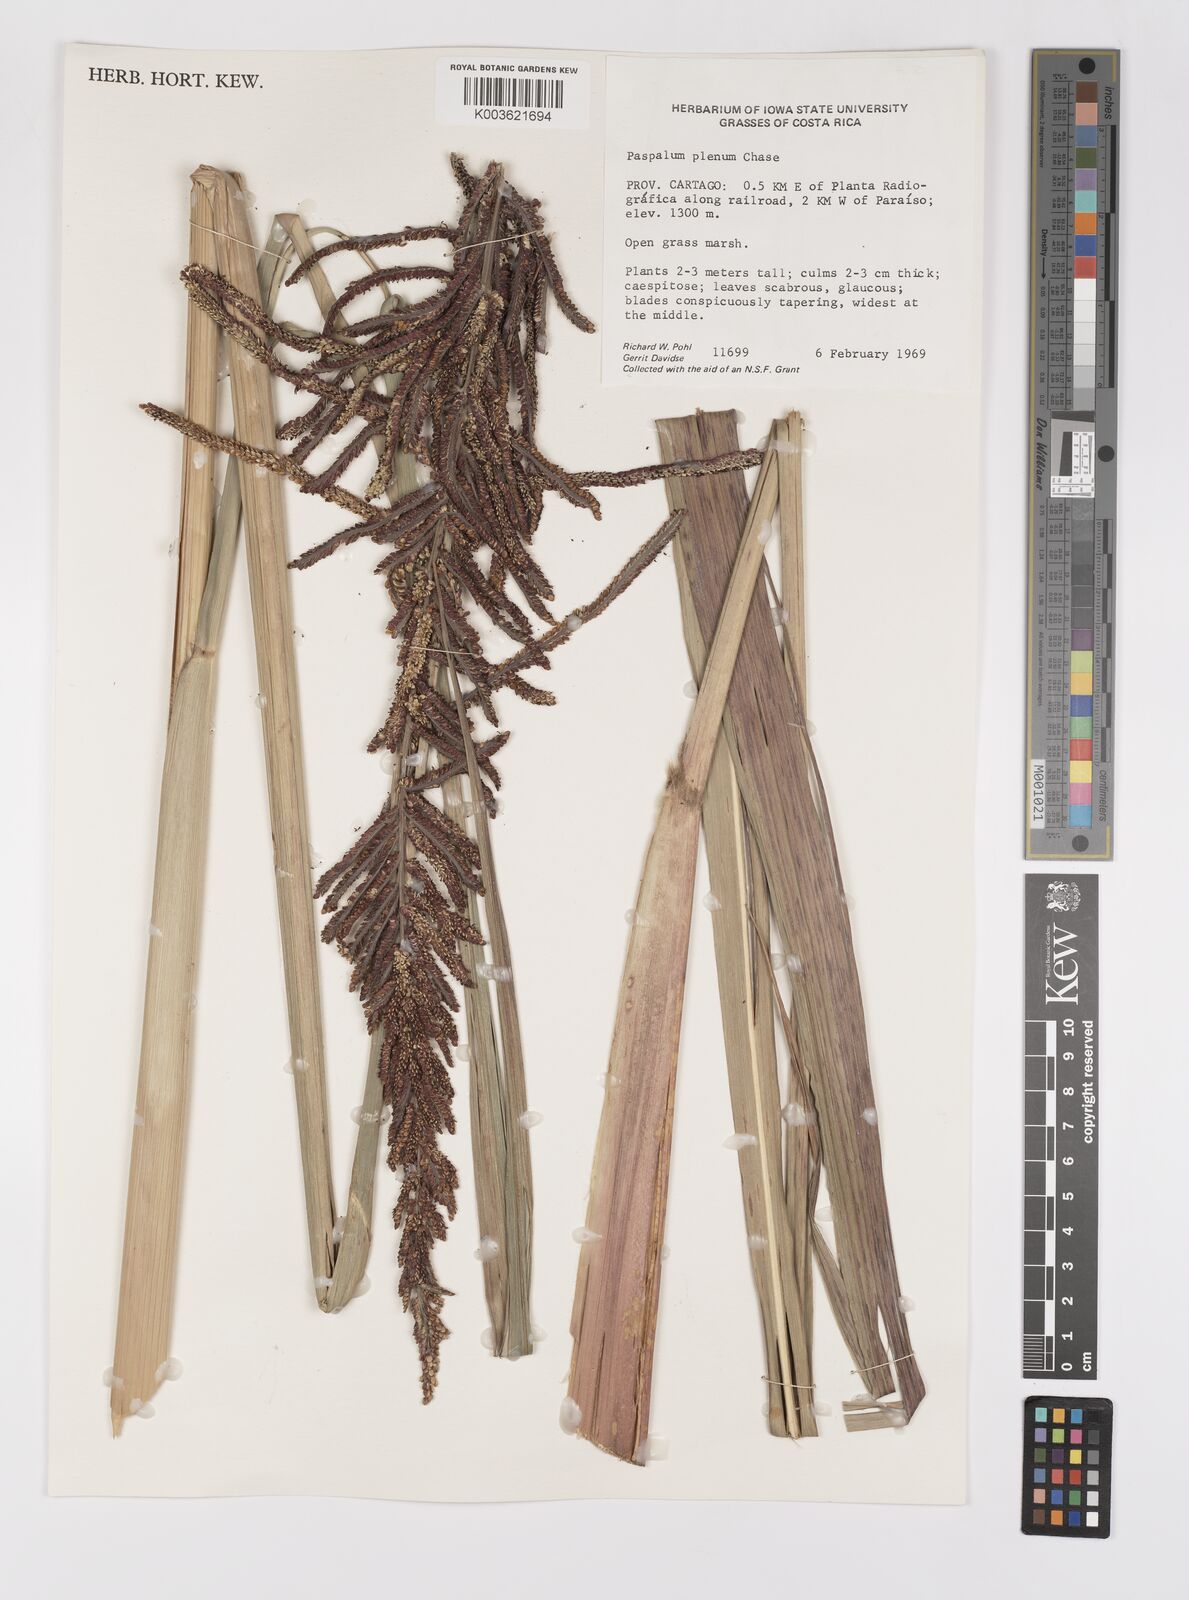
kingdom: Plantae
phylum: Tracheophyta
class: Liliopsida
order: Poales
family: Poaceae
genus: Paspalum
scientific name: Paspalum plenum
